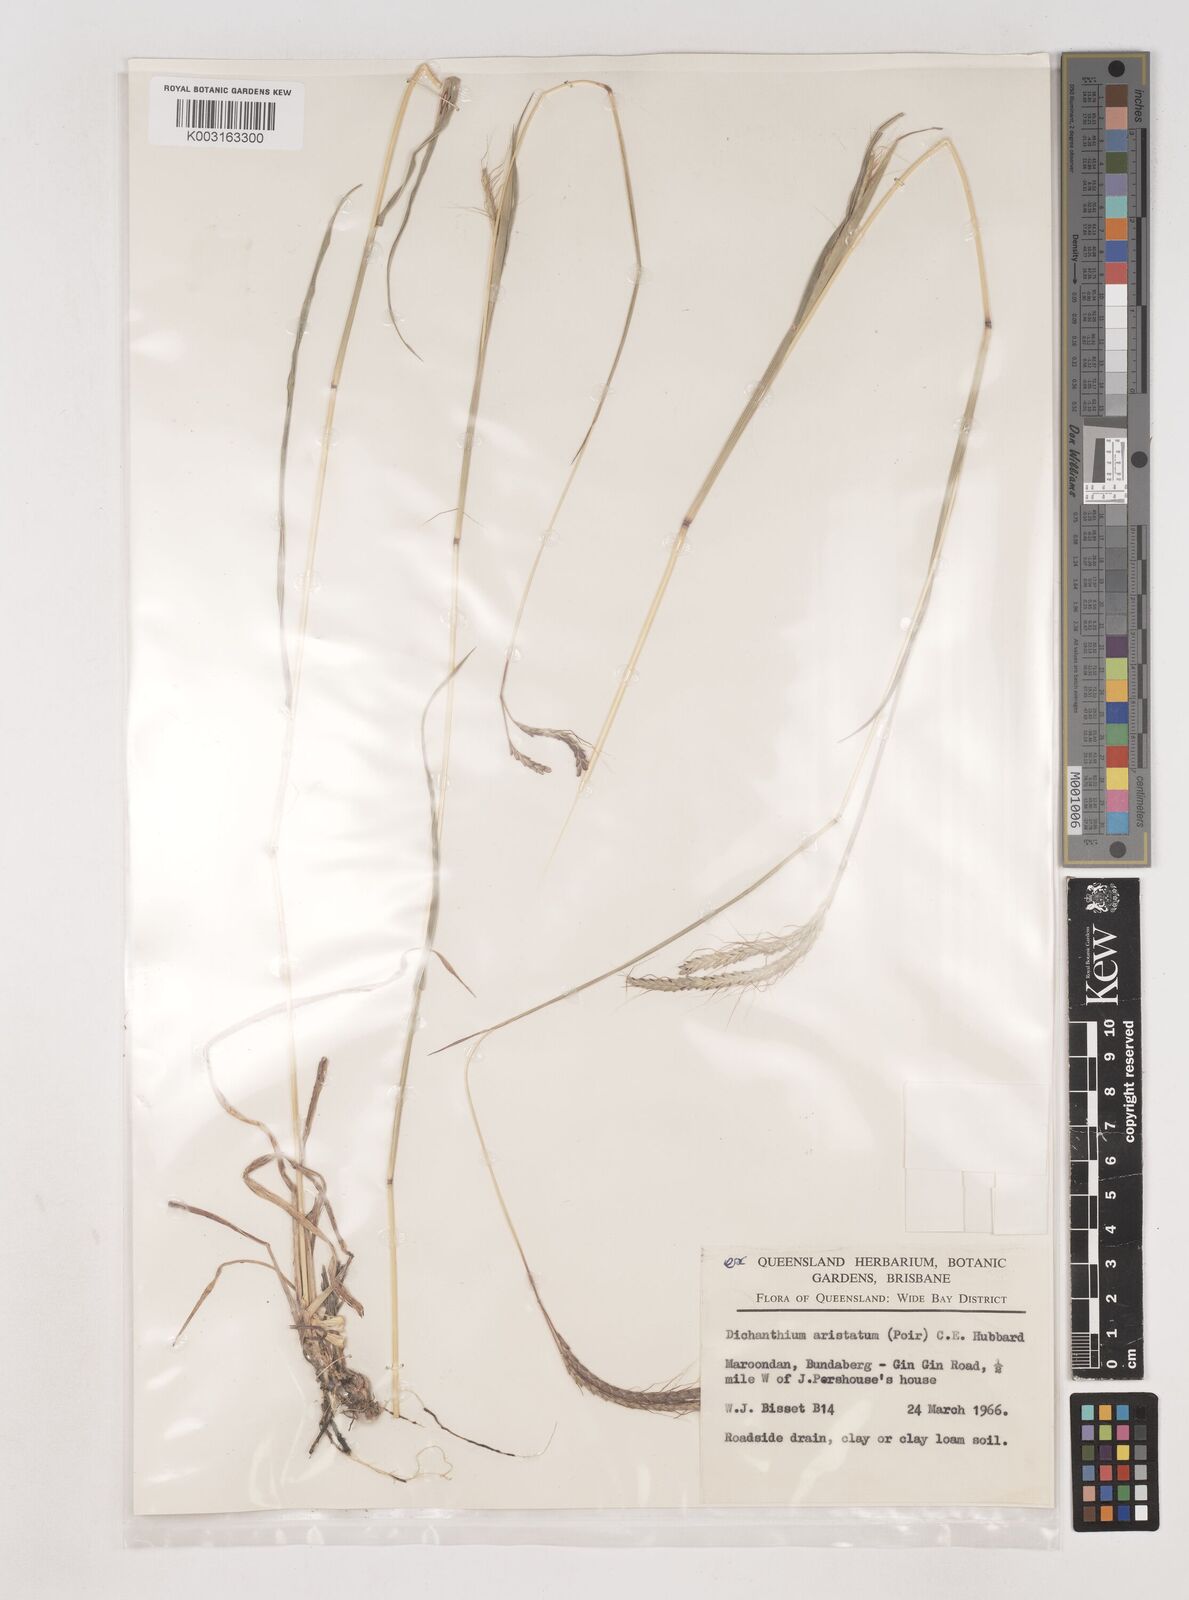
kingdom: Plantae
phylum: Tracheophyta
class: Liliopsida
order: Poales
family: Poaceae
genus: Dichanthium
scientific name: Dichanthium aristatum
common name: Angleton bluestem
